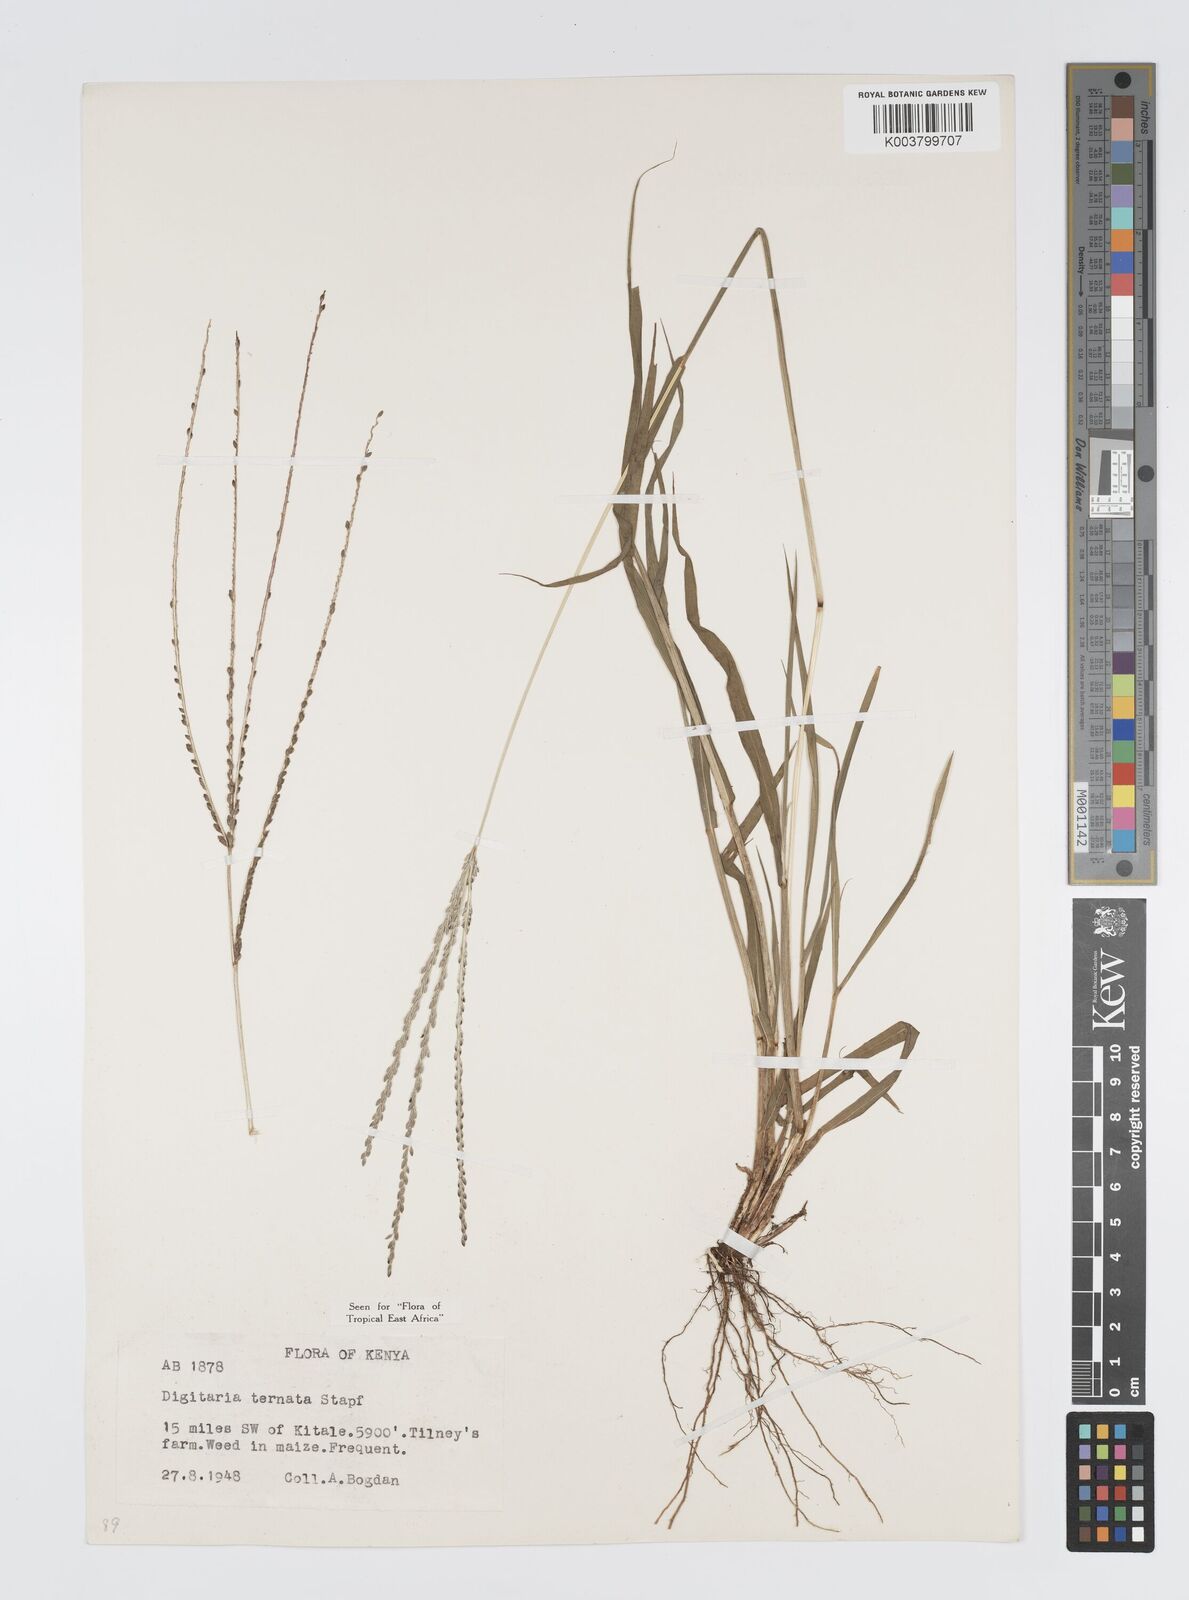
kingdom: Plantae
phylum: Tracheophyta
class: Liliopsida
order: Poales
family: Poaceae
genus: Digitaria
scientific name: Digitaria ternata
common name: Blackseed crabgrass
